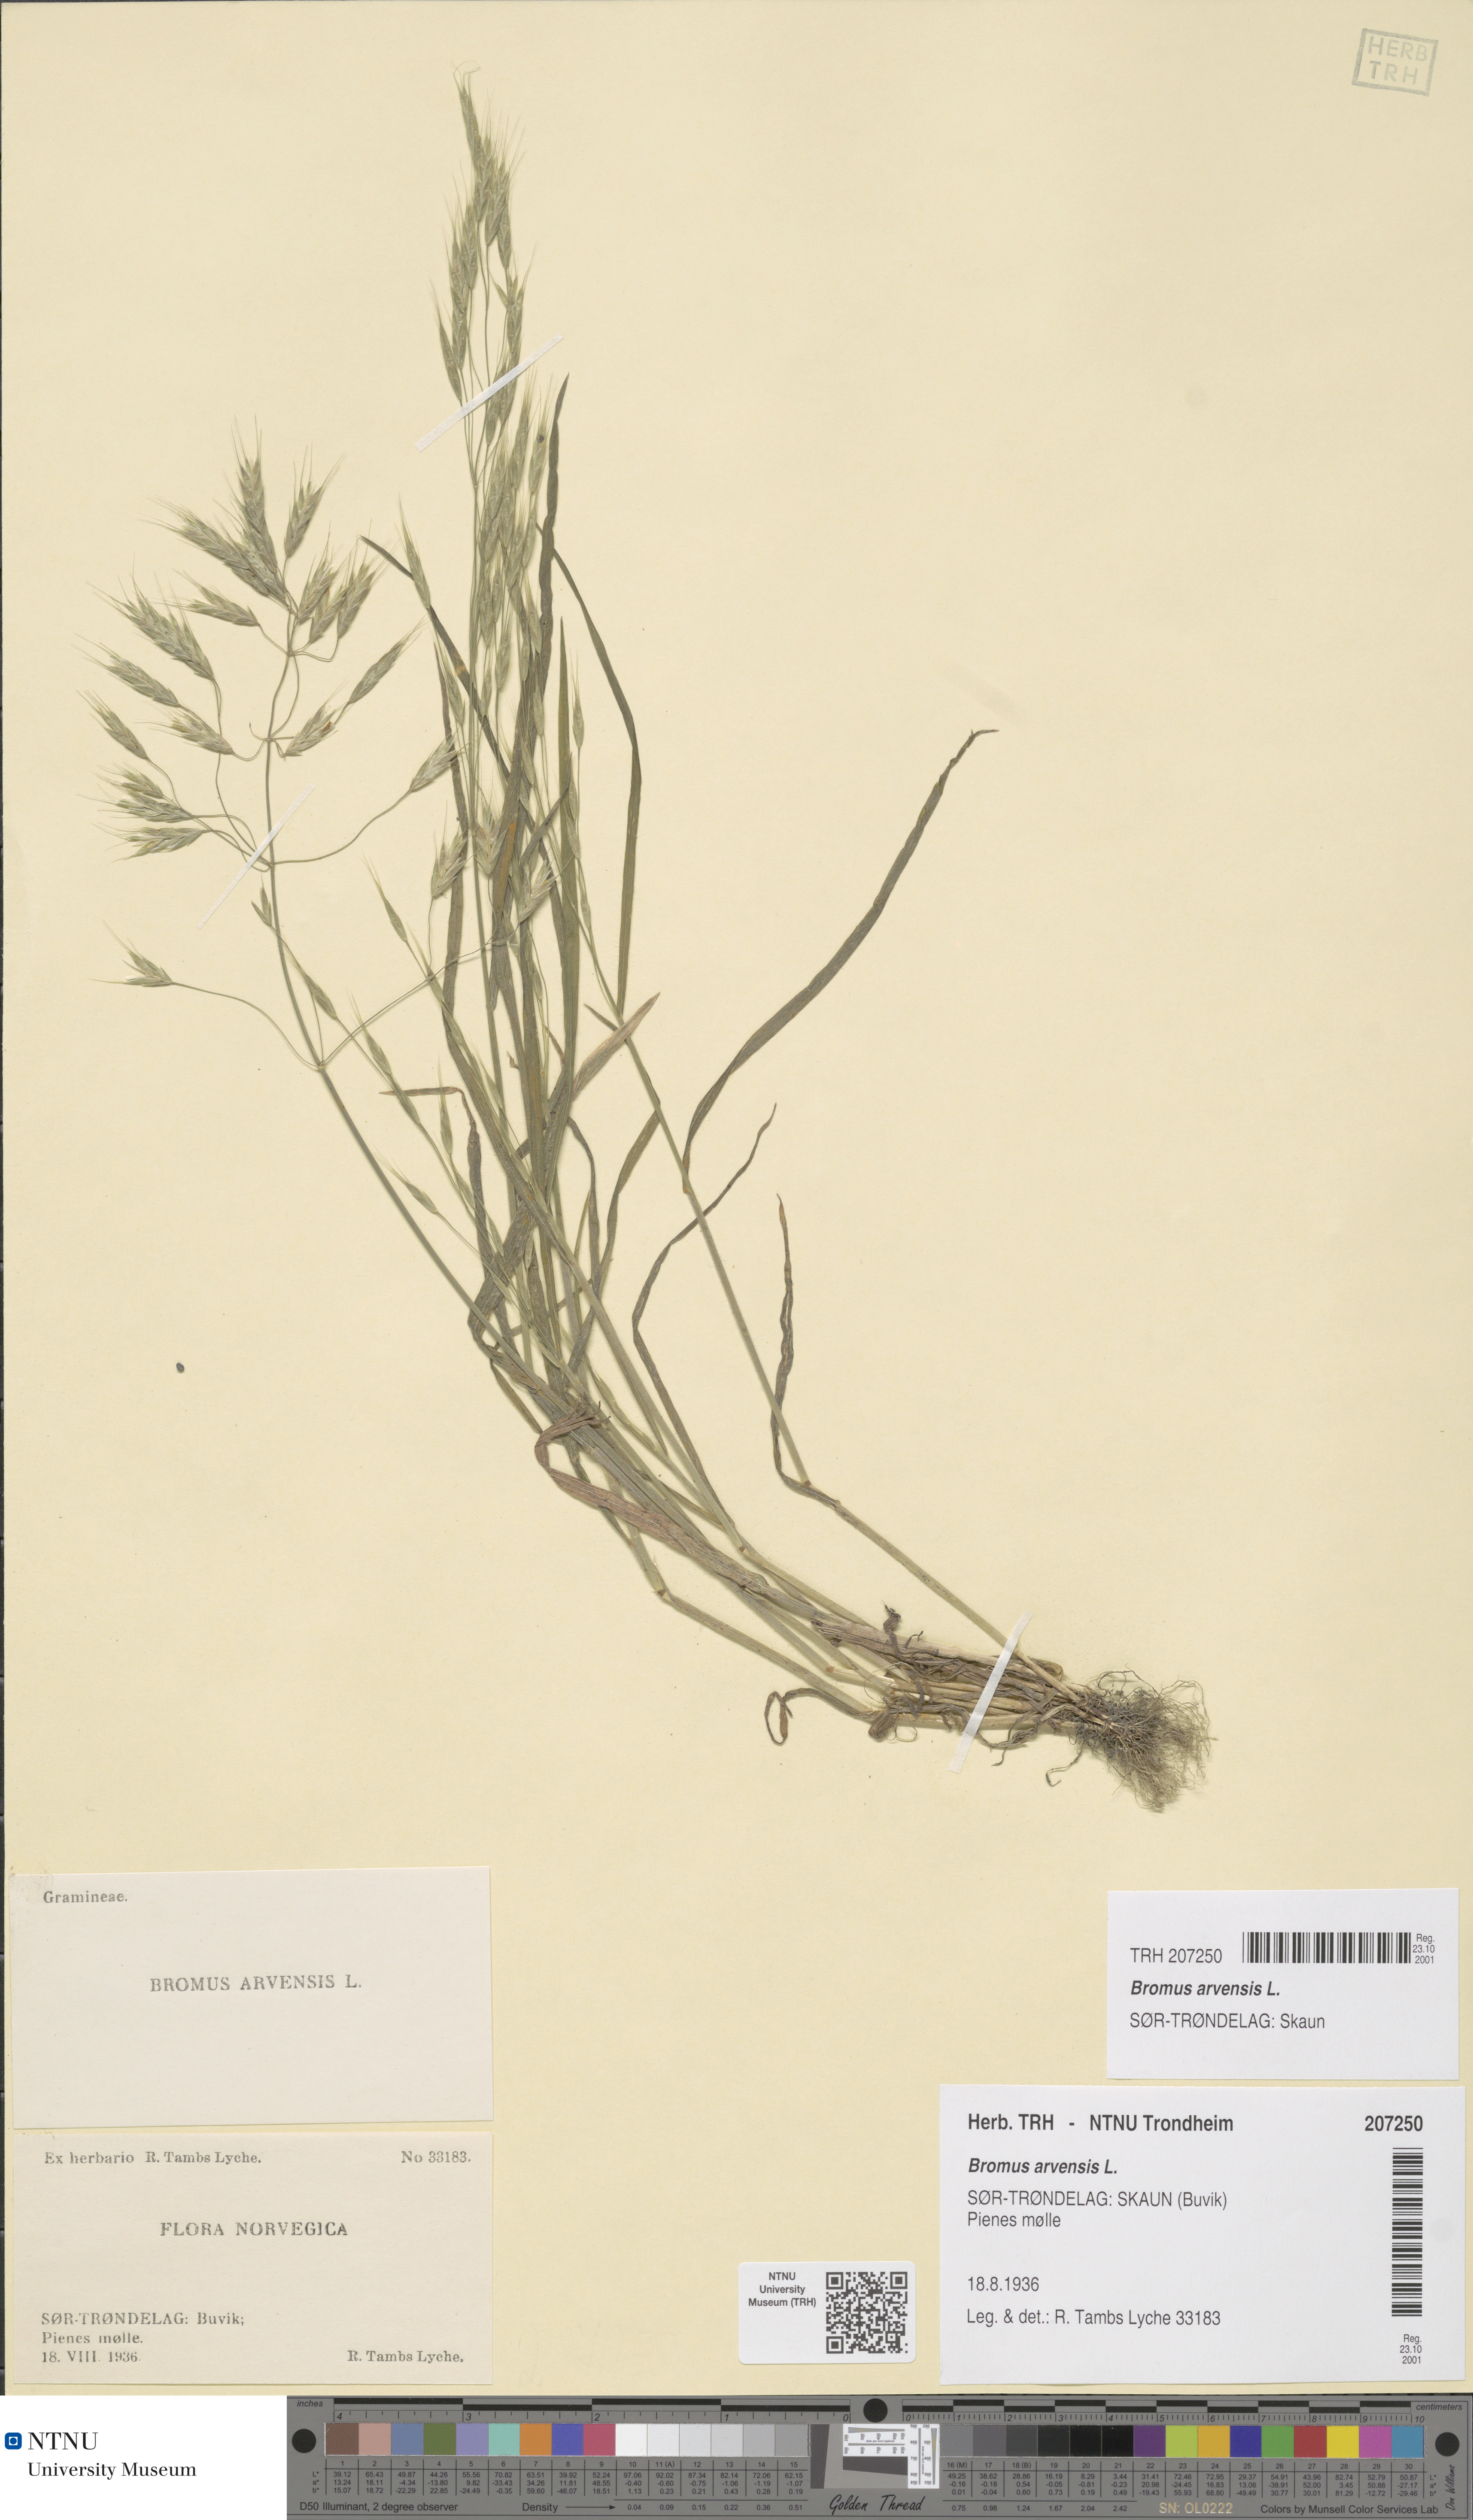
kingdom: Plantae
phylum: Tracheophyta
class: Liliopsida
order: Poales
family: Poaceae
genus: Bromus
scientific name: Bromus arvensis
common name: Field brome
